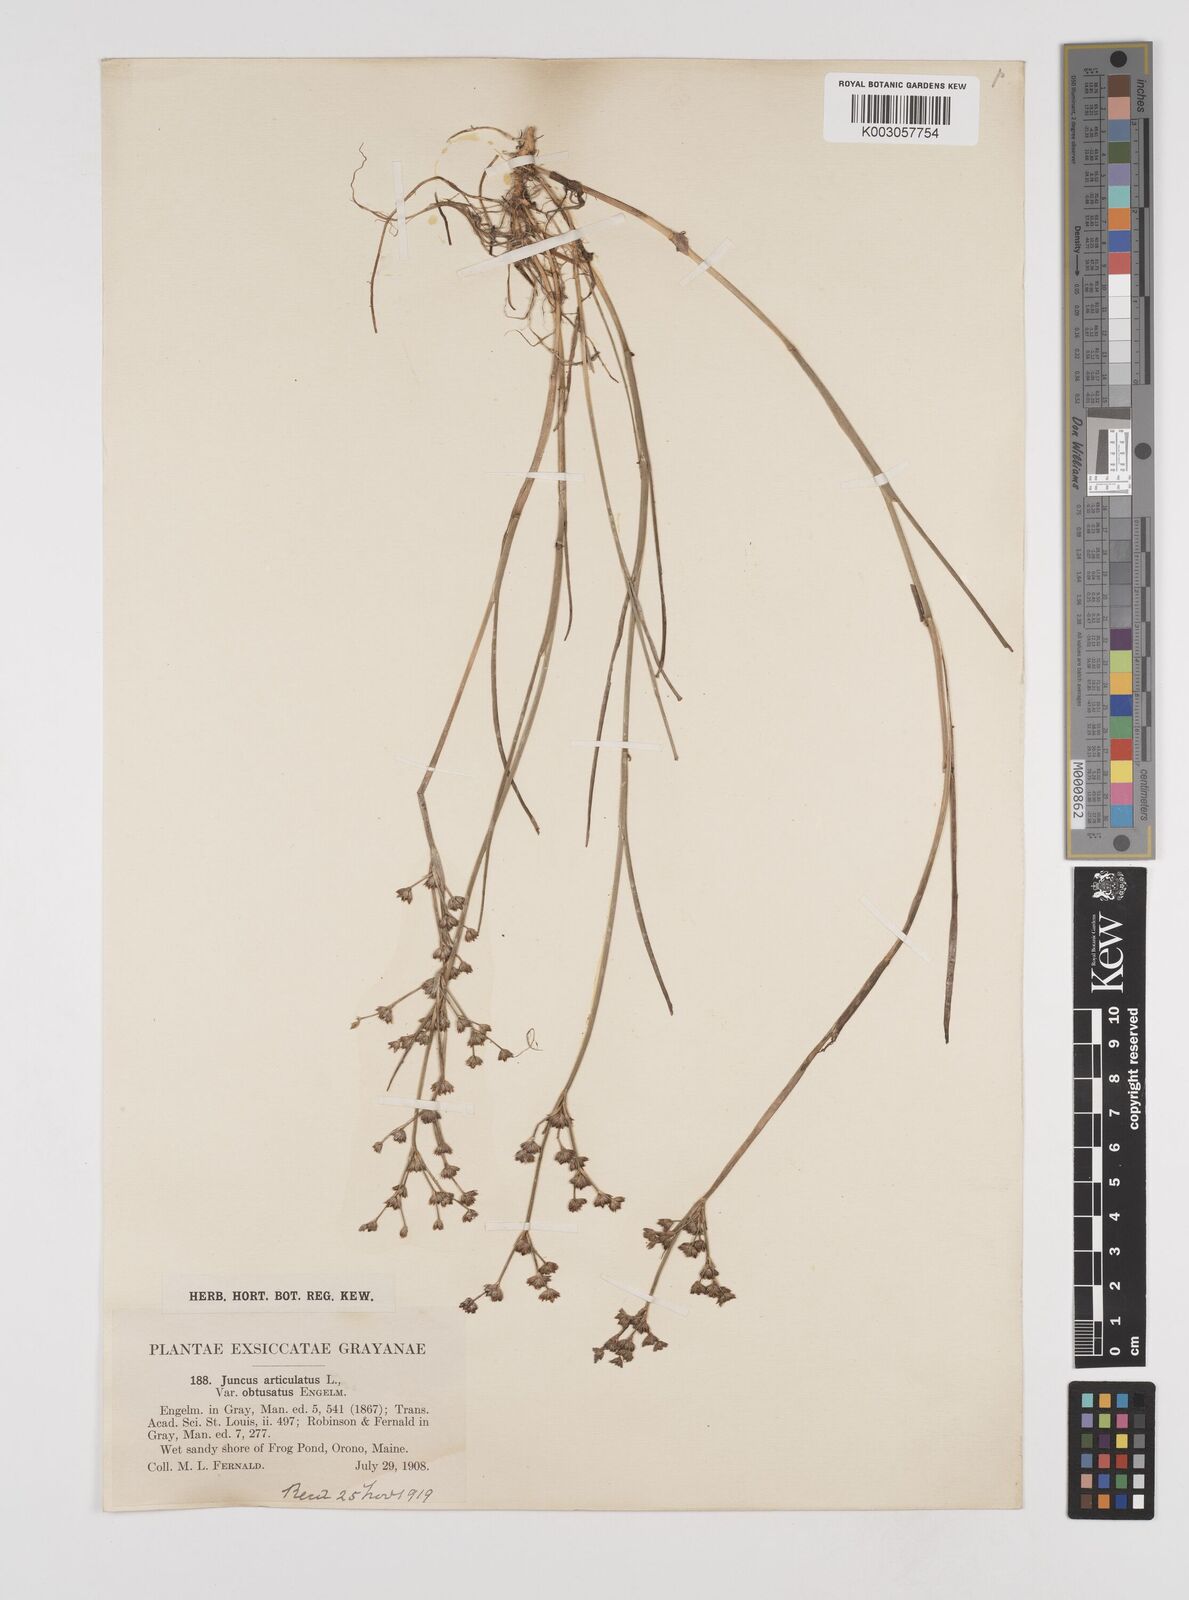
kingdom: Plantae
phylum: Tracheophyta
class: Liliopsida
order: Poales
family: Juncaceae
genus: Juncus
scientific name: Juncus articulatus
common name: Jointed rush
